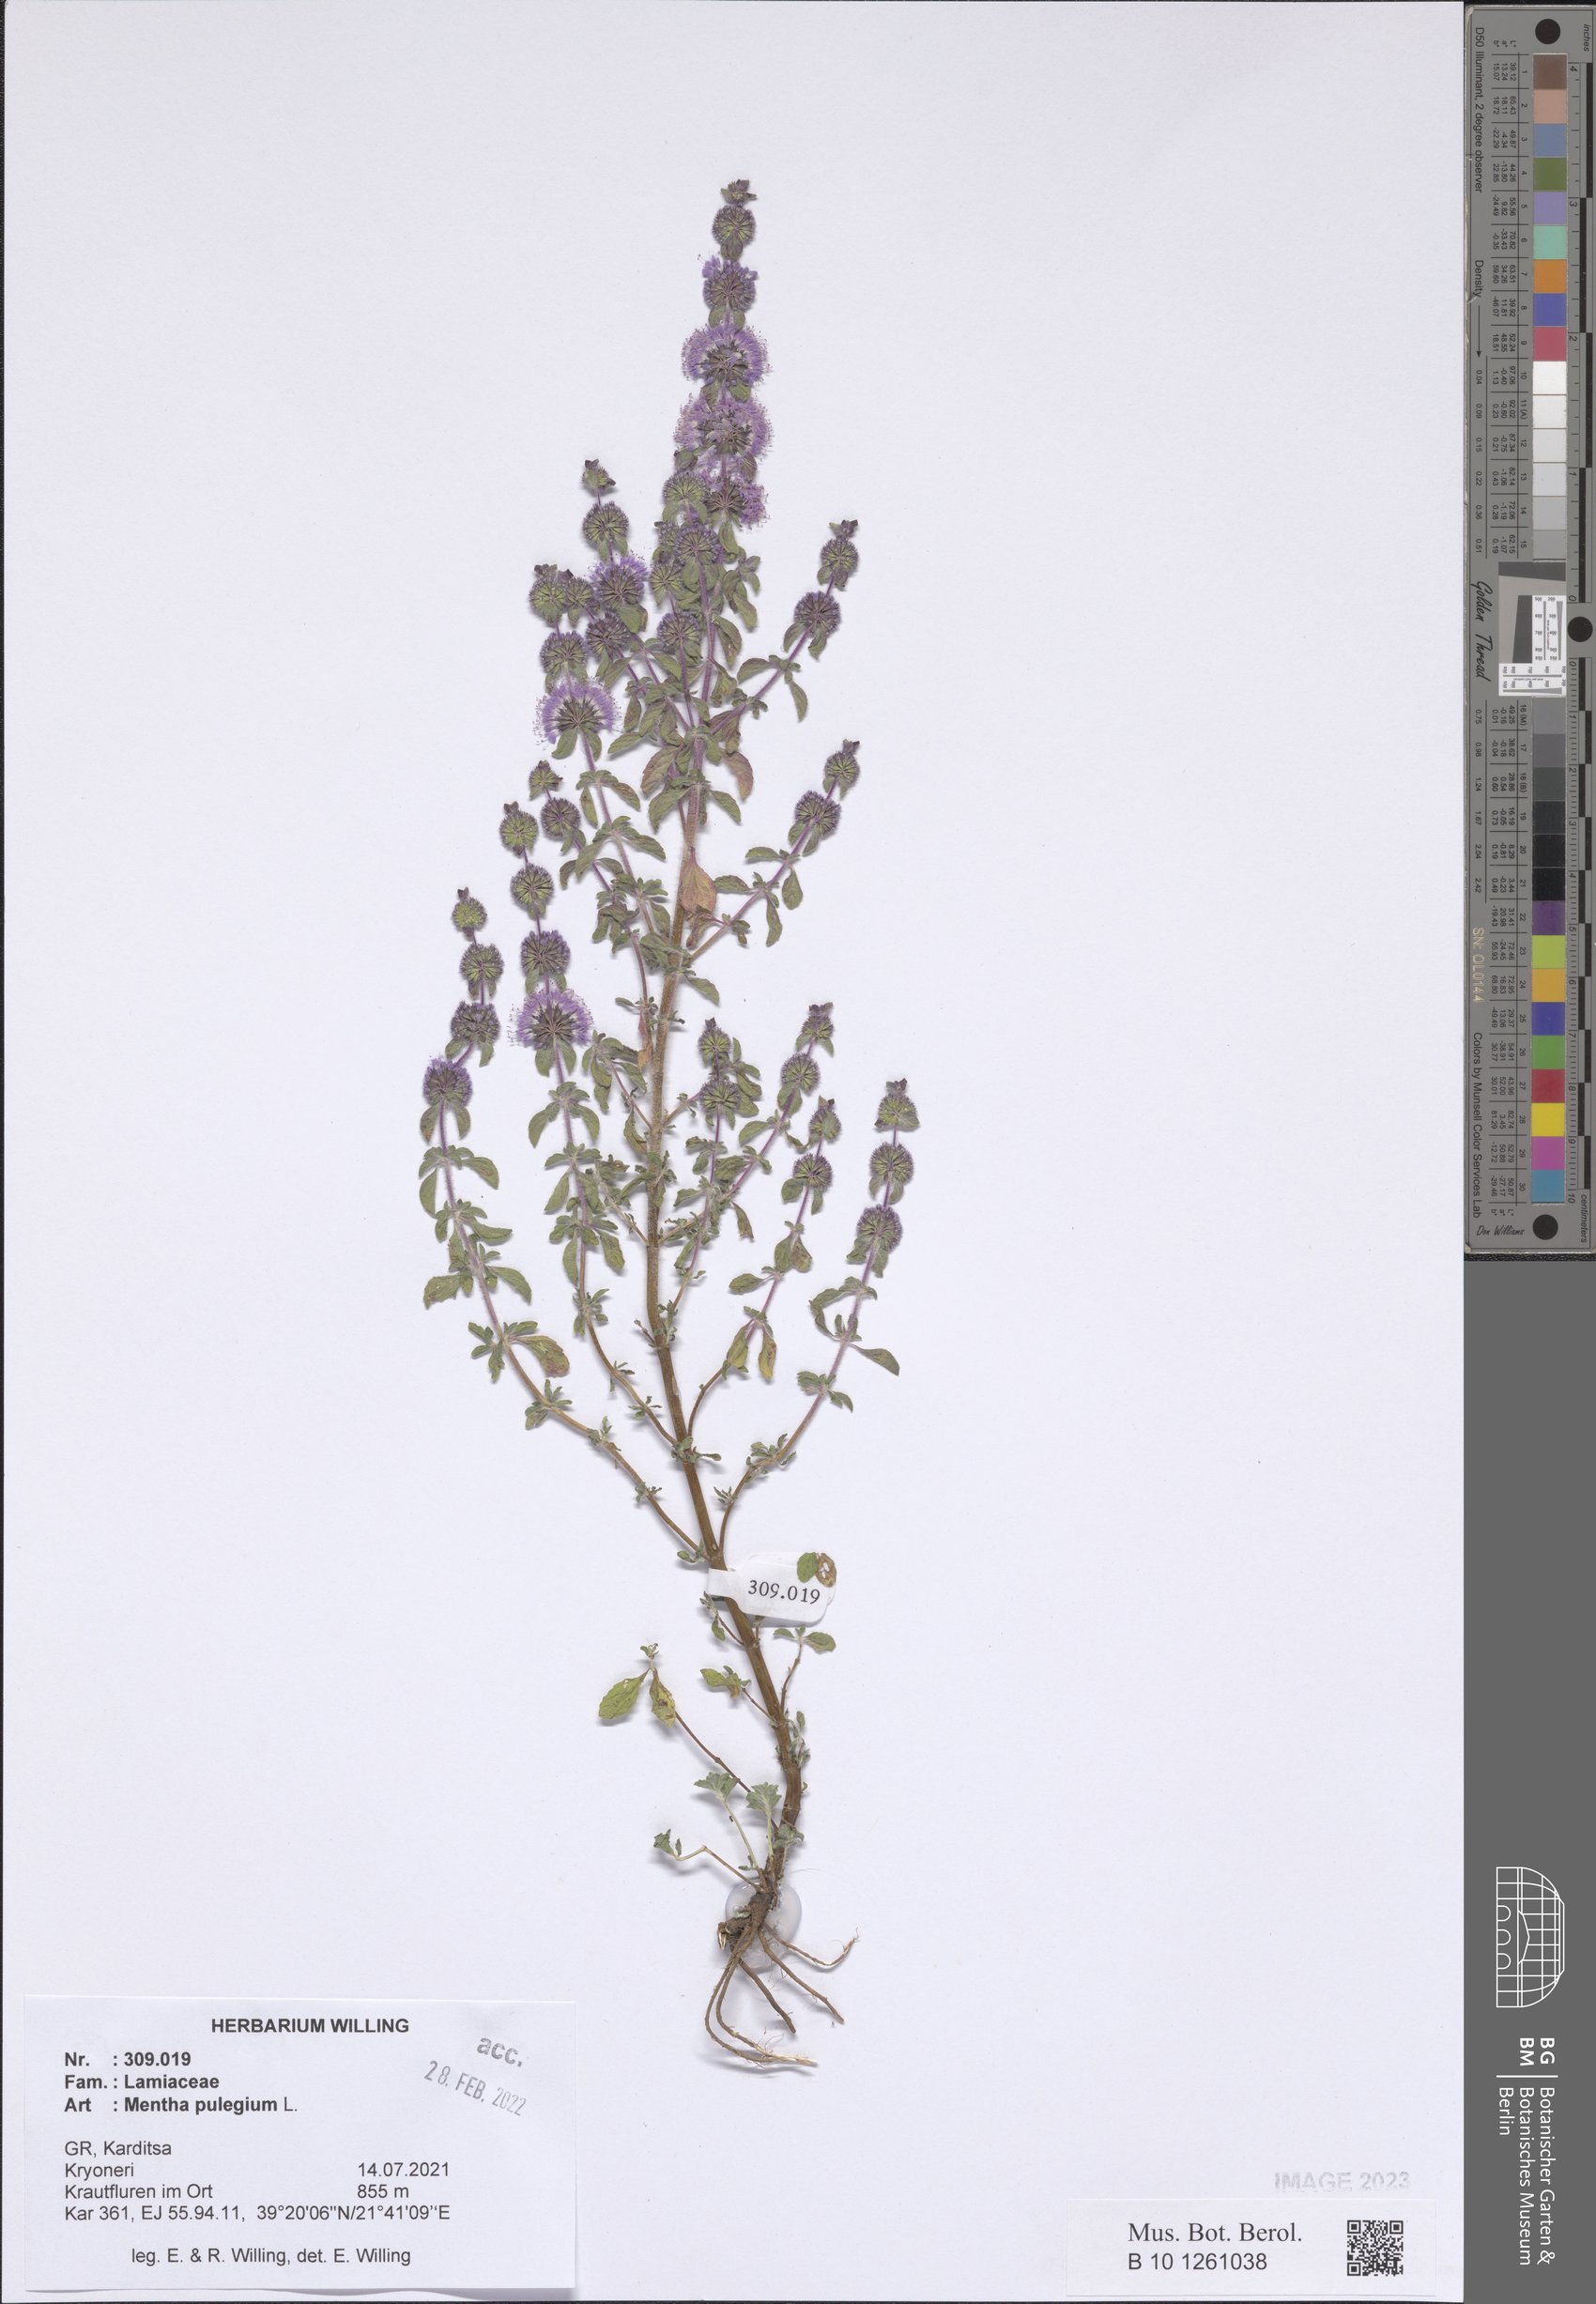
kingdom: Plantae
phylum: Tracheophyta
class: Magnoliopsida
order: Lamiales
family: Lamiaceae
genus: Mentha
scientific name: Mentha pulegium
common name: Pennyroyal
